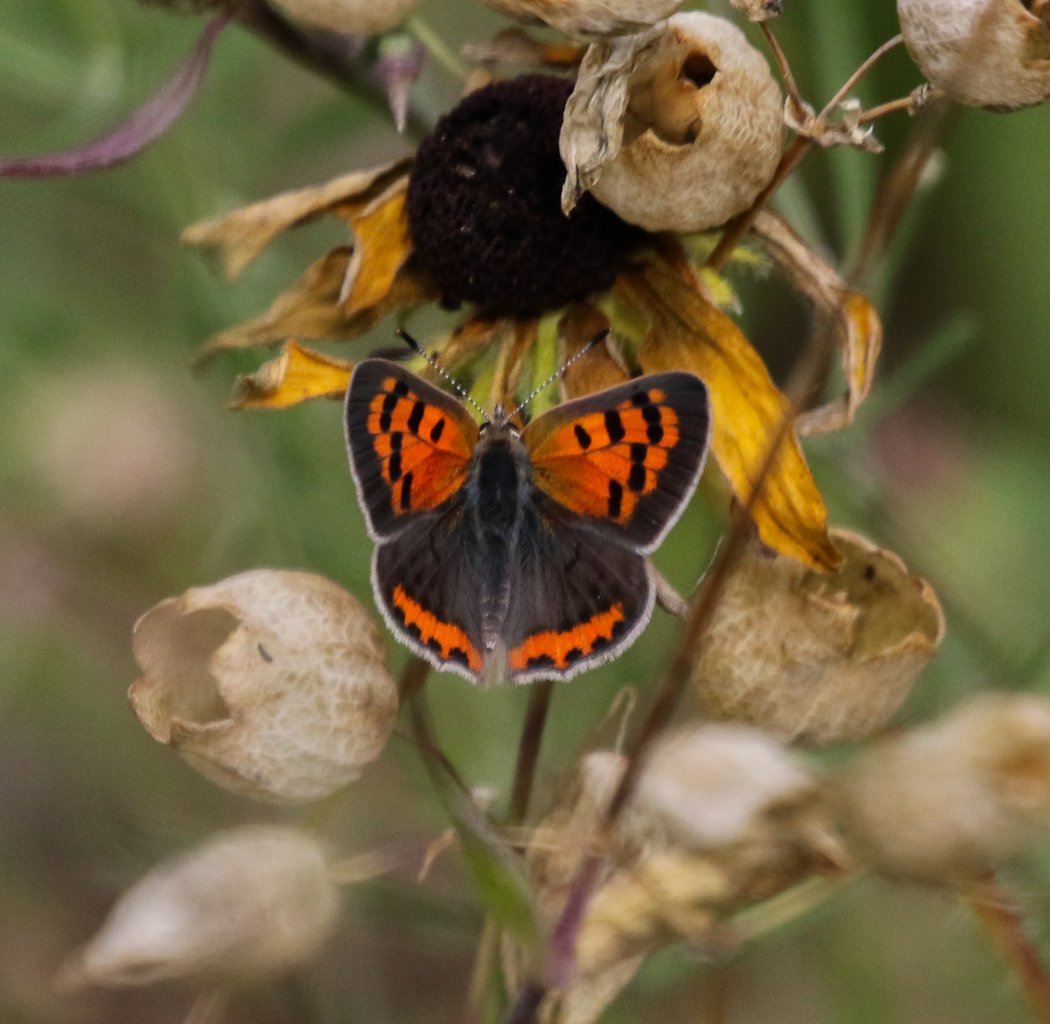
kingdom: Animalia
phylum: Arthropoda
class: Insecta
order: Lepidoptera
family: Lycaenidae
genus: Lycaena
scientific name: Lycaena phlaeas
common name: American Copper
